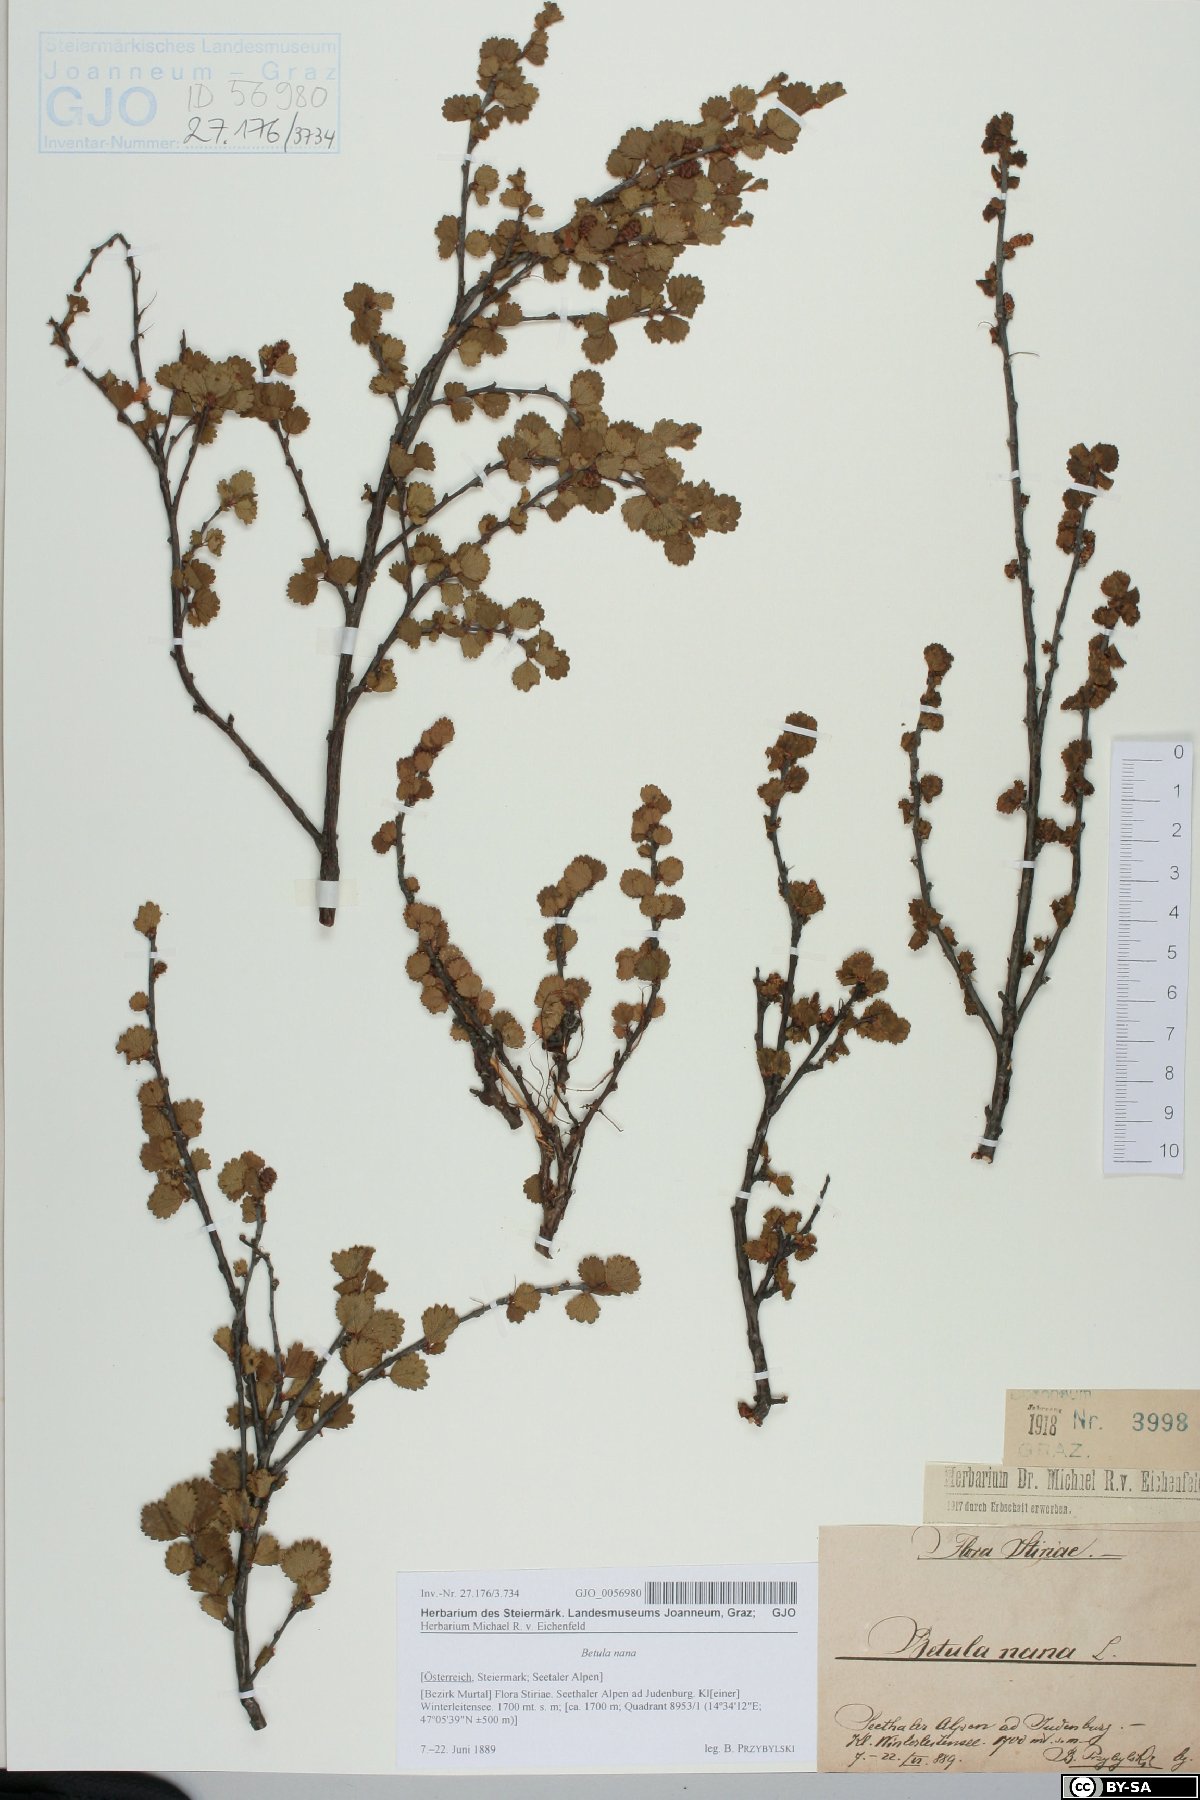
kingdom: Plantae
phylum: Tracheophyta
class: Magnoliopsida
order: Fagales
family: Betulaceae
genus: Betula
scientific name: Betula nana
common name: Arctic dwarf birch
